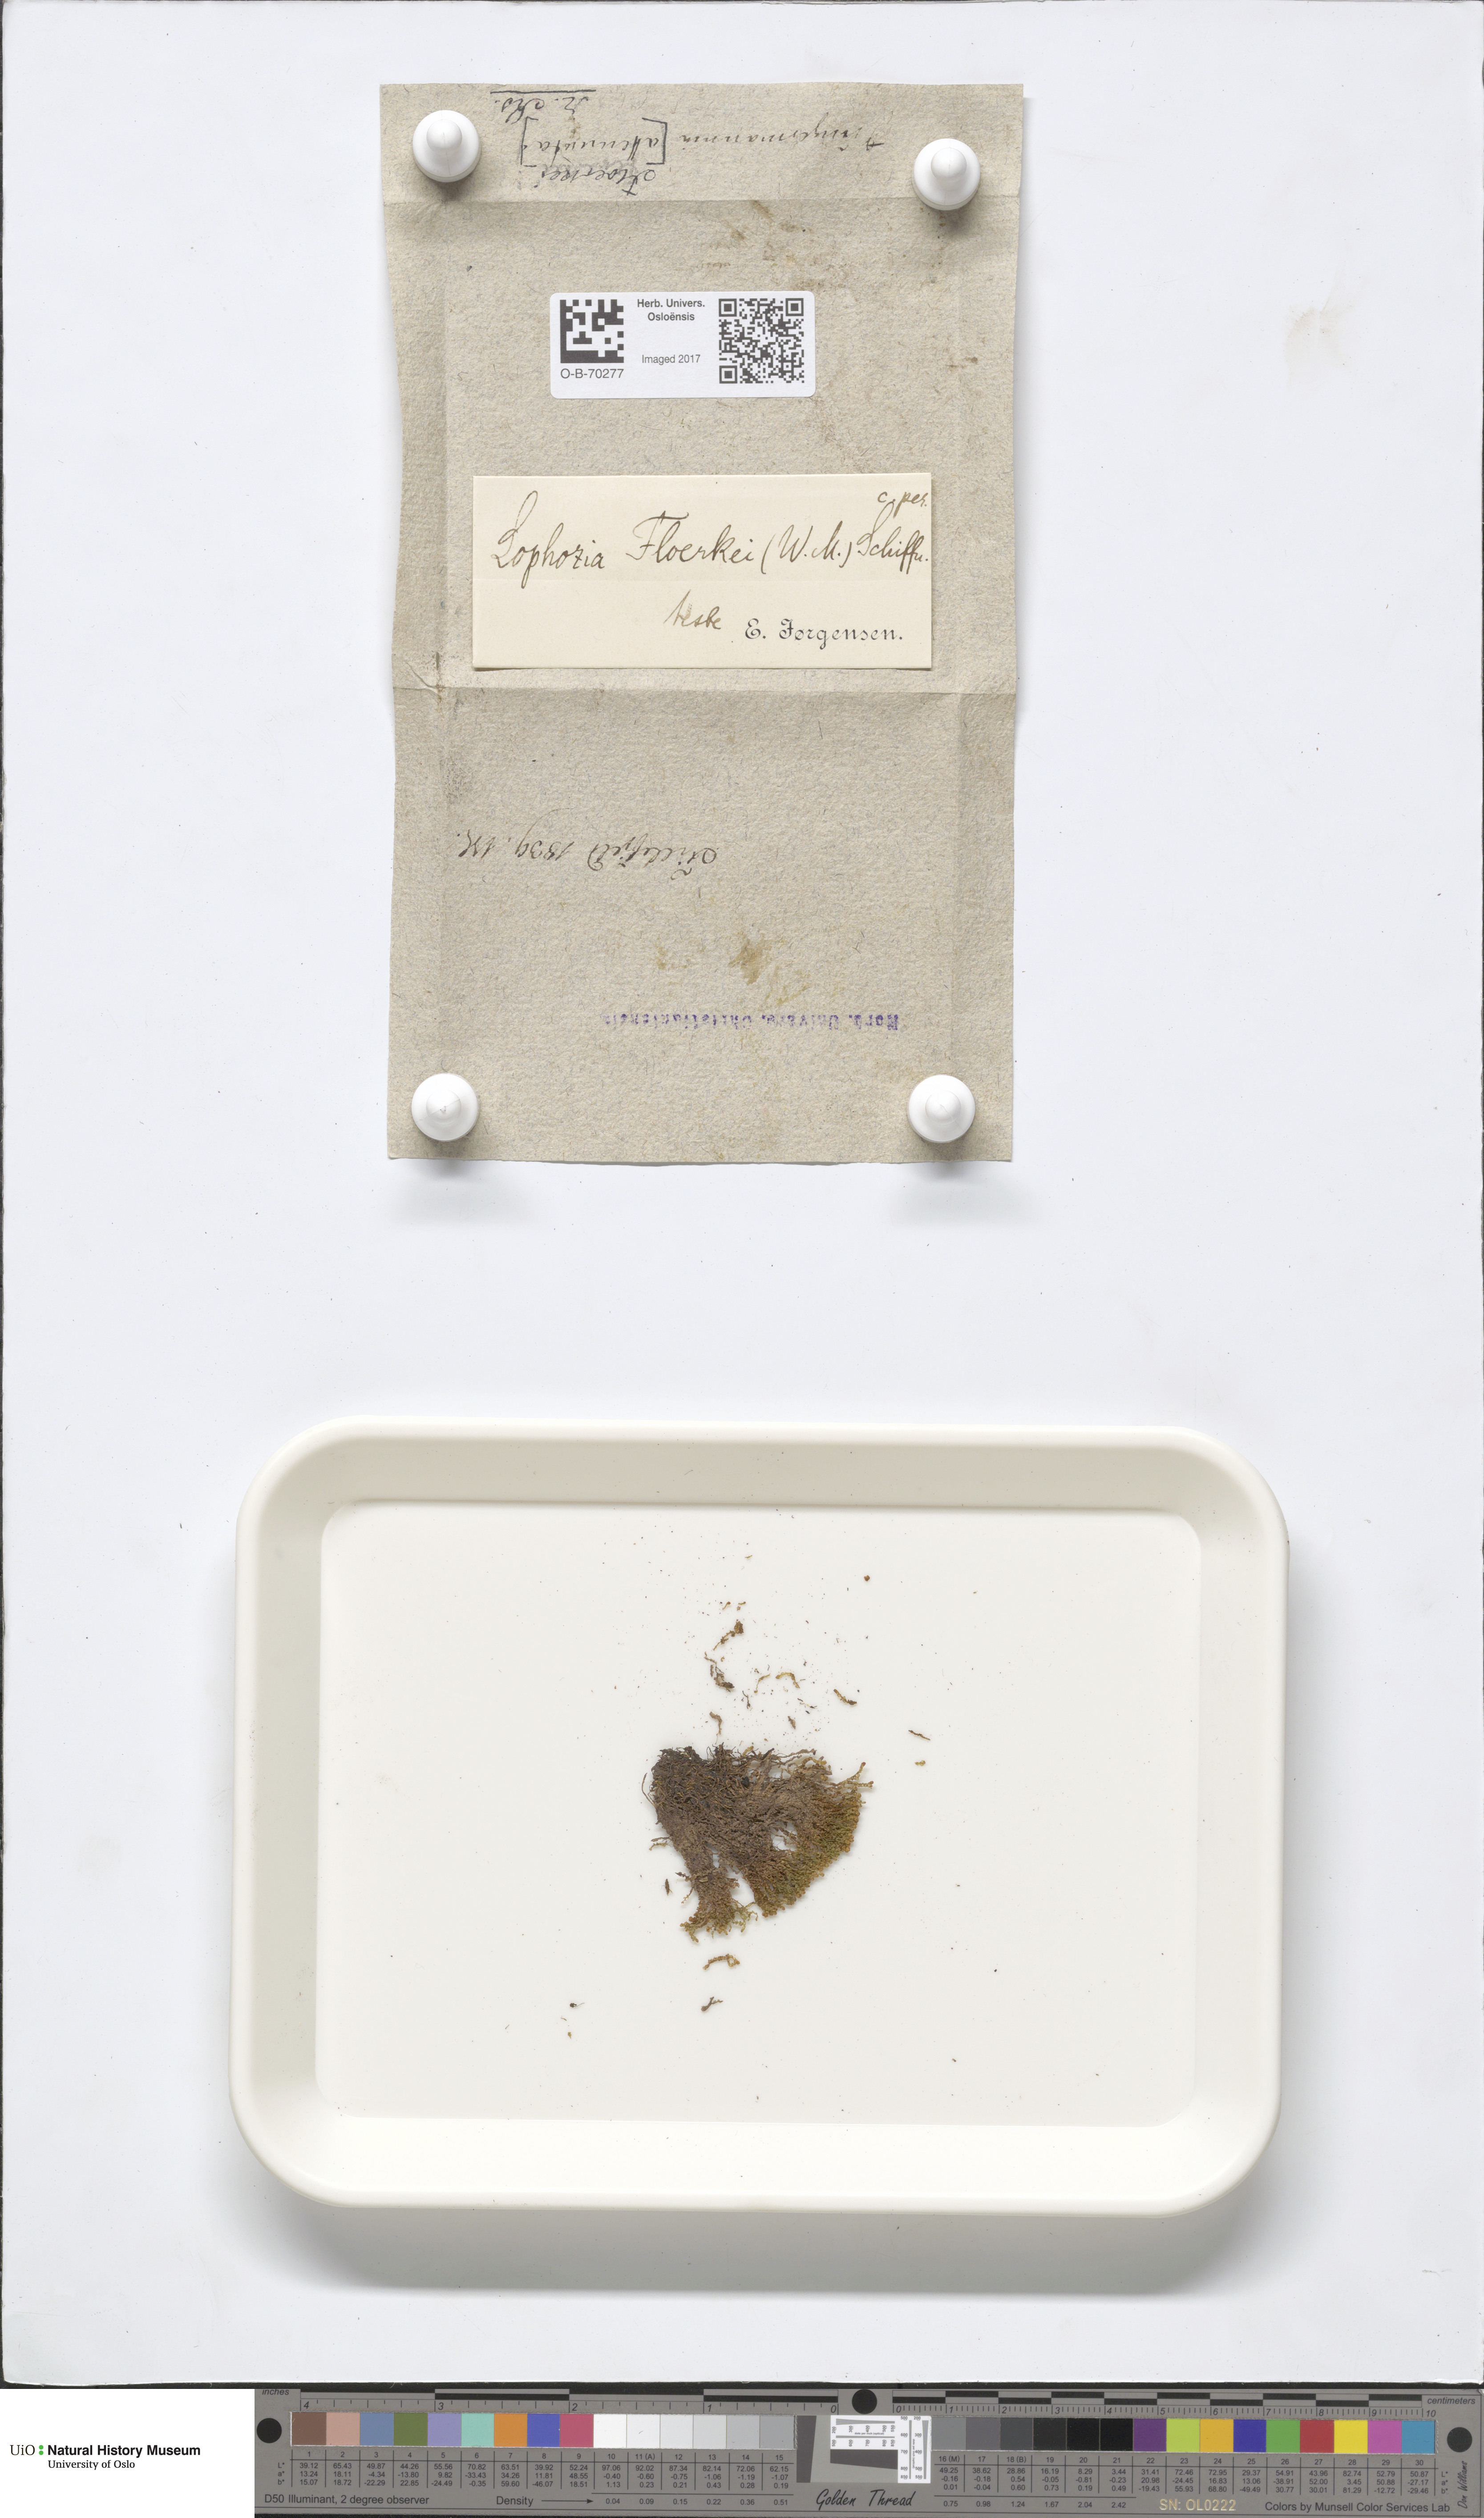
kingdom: Plantae
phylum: Marchantiophyta
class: Jungermanniopsida
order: Jungermanniales
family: Anastrophyllaceae
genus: Neoorthocaulis
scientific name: Neoorthocaulis floerkei
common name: Floerke's barbilophozia
